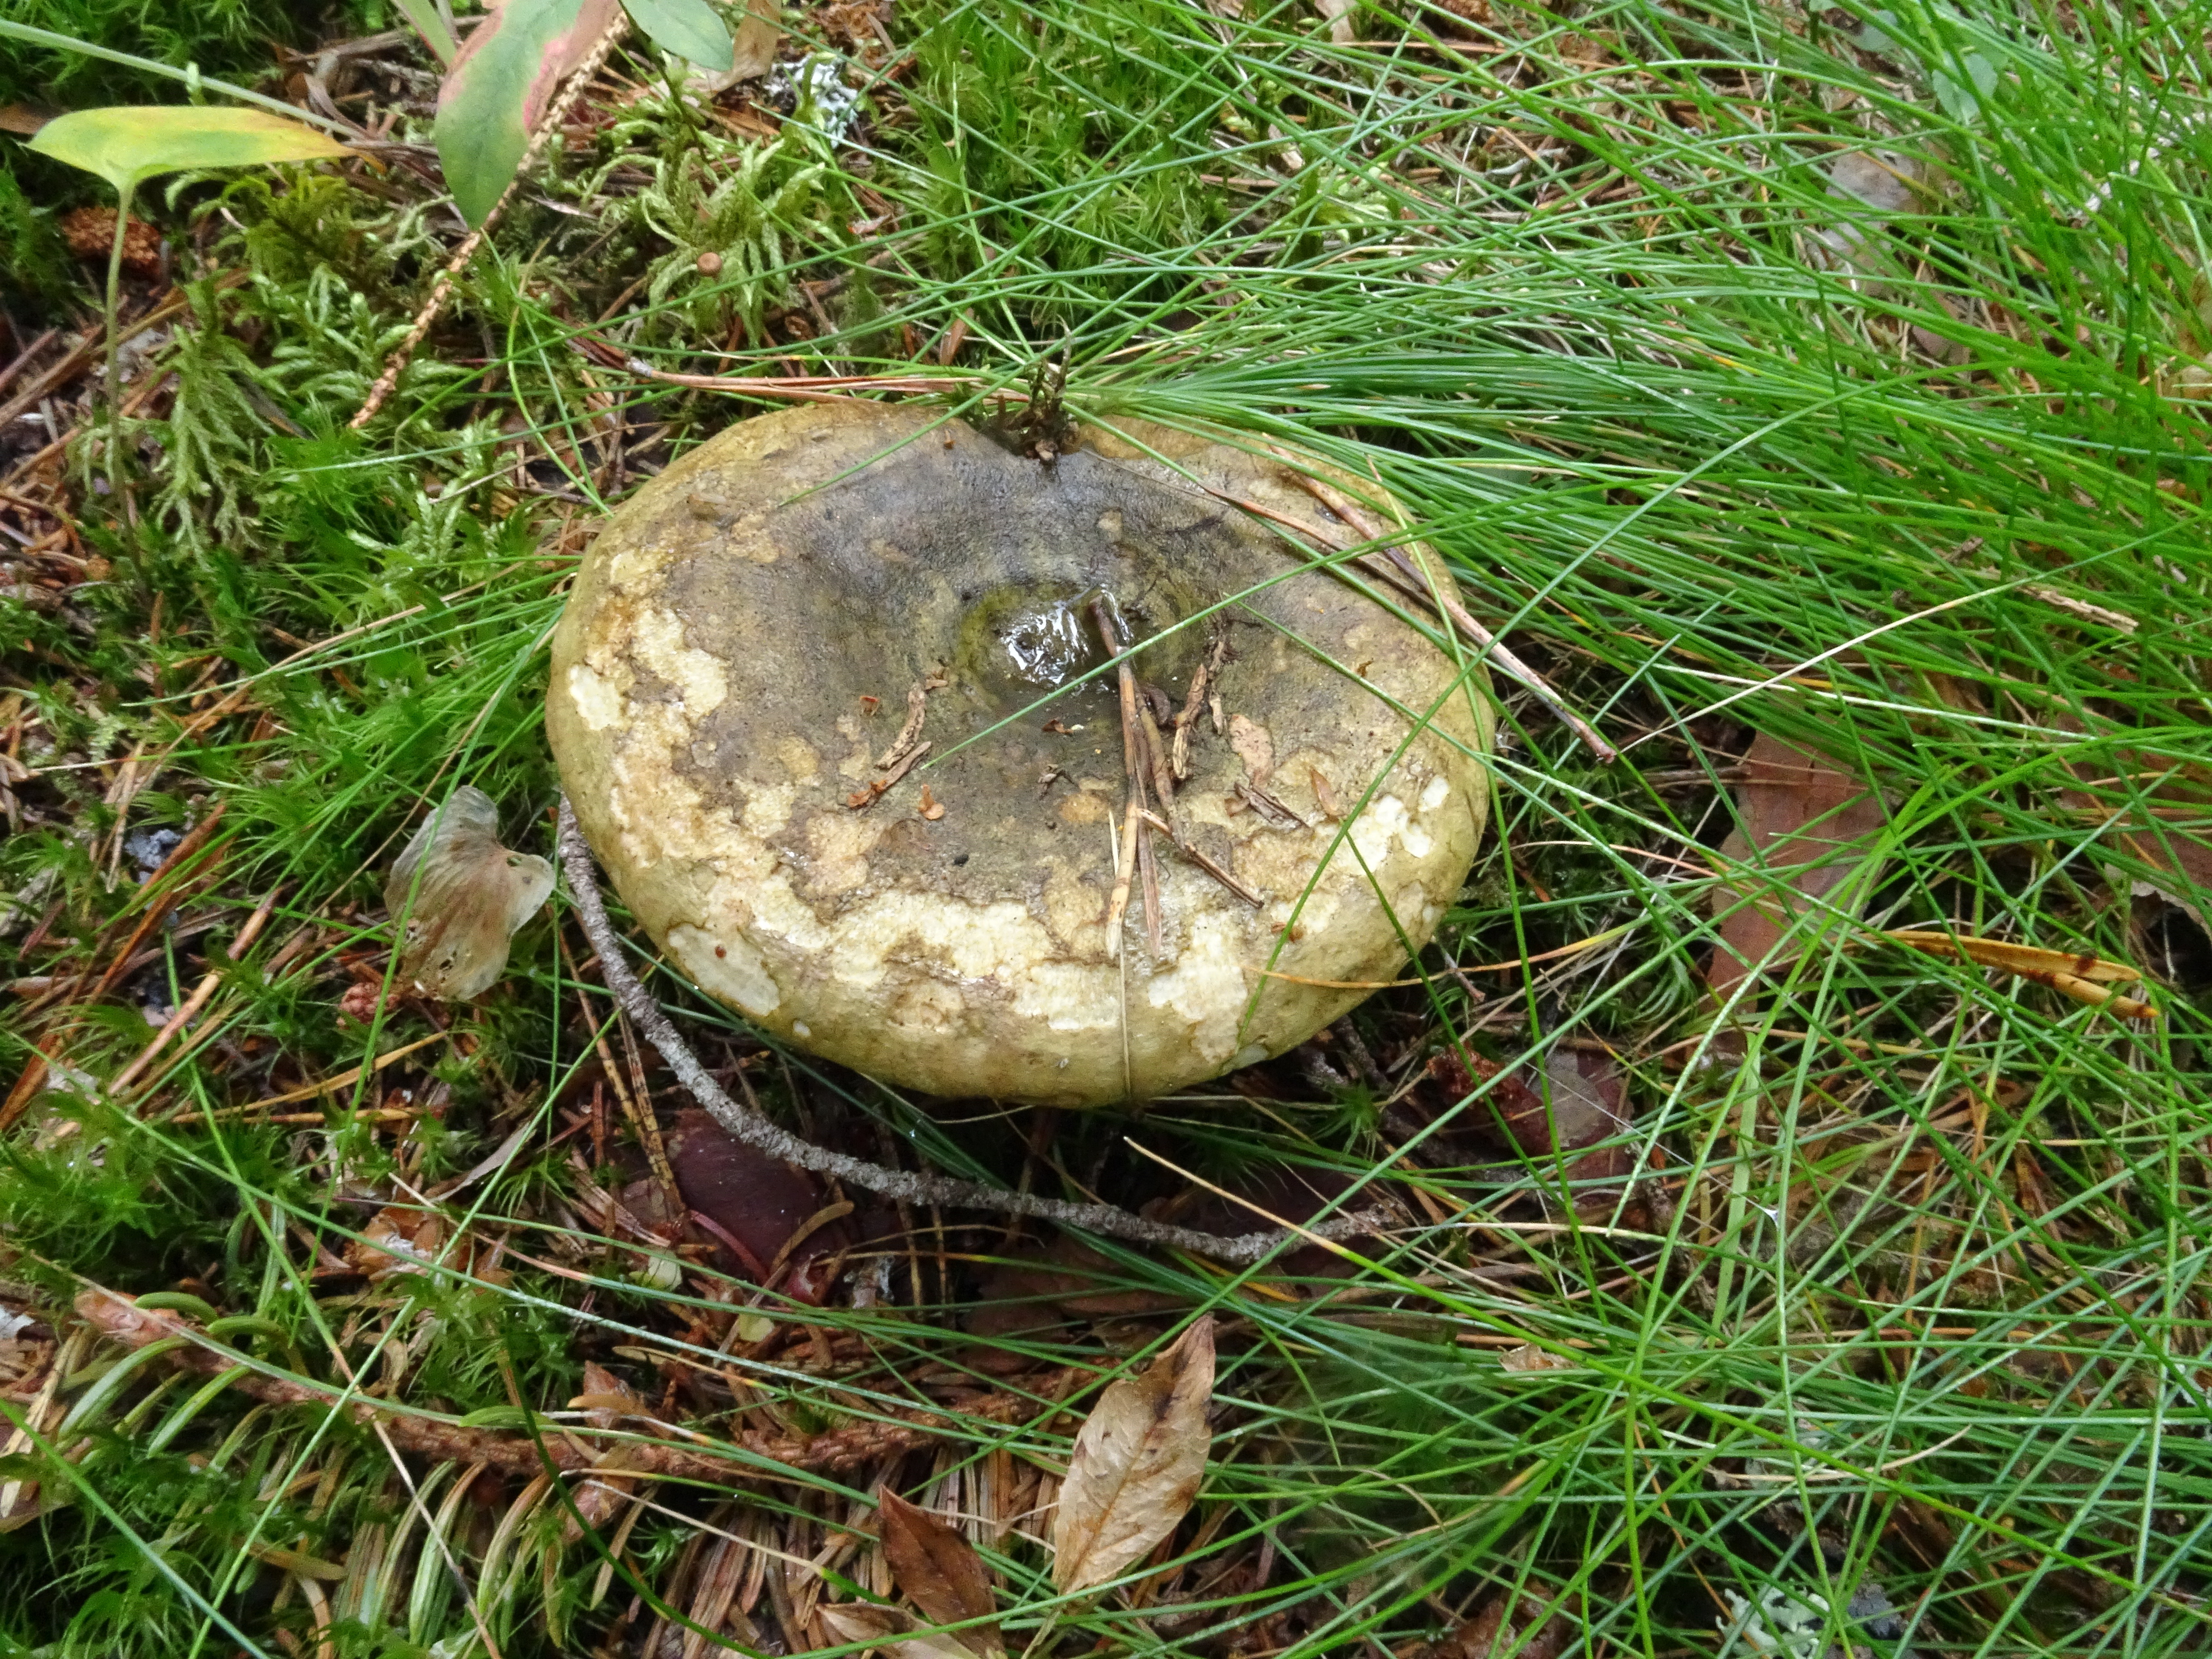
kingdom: Fungi
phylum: Basidiomycota
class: Agaricomycetes
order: Russulales
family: Russulaceae
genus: Lactarius
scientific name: Lactarius turpis
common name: Ugly milk-cap
